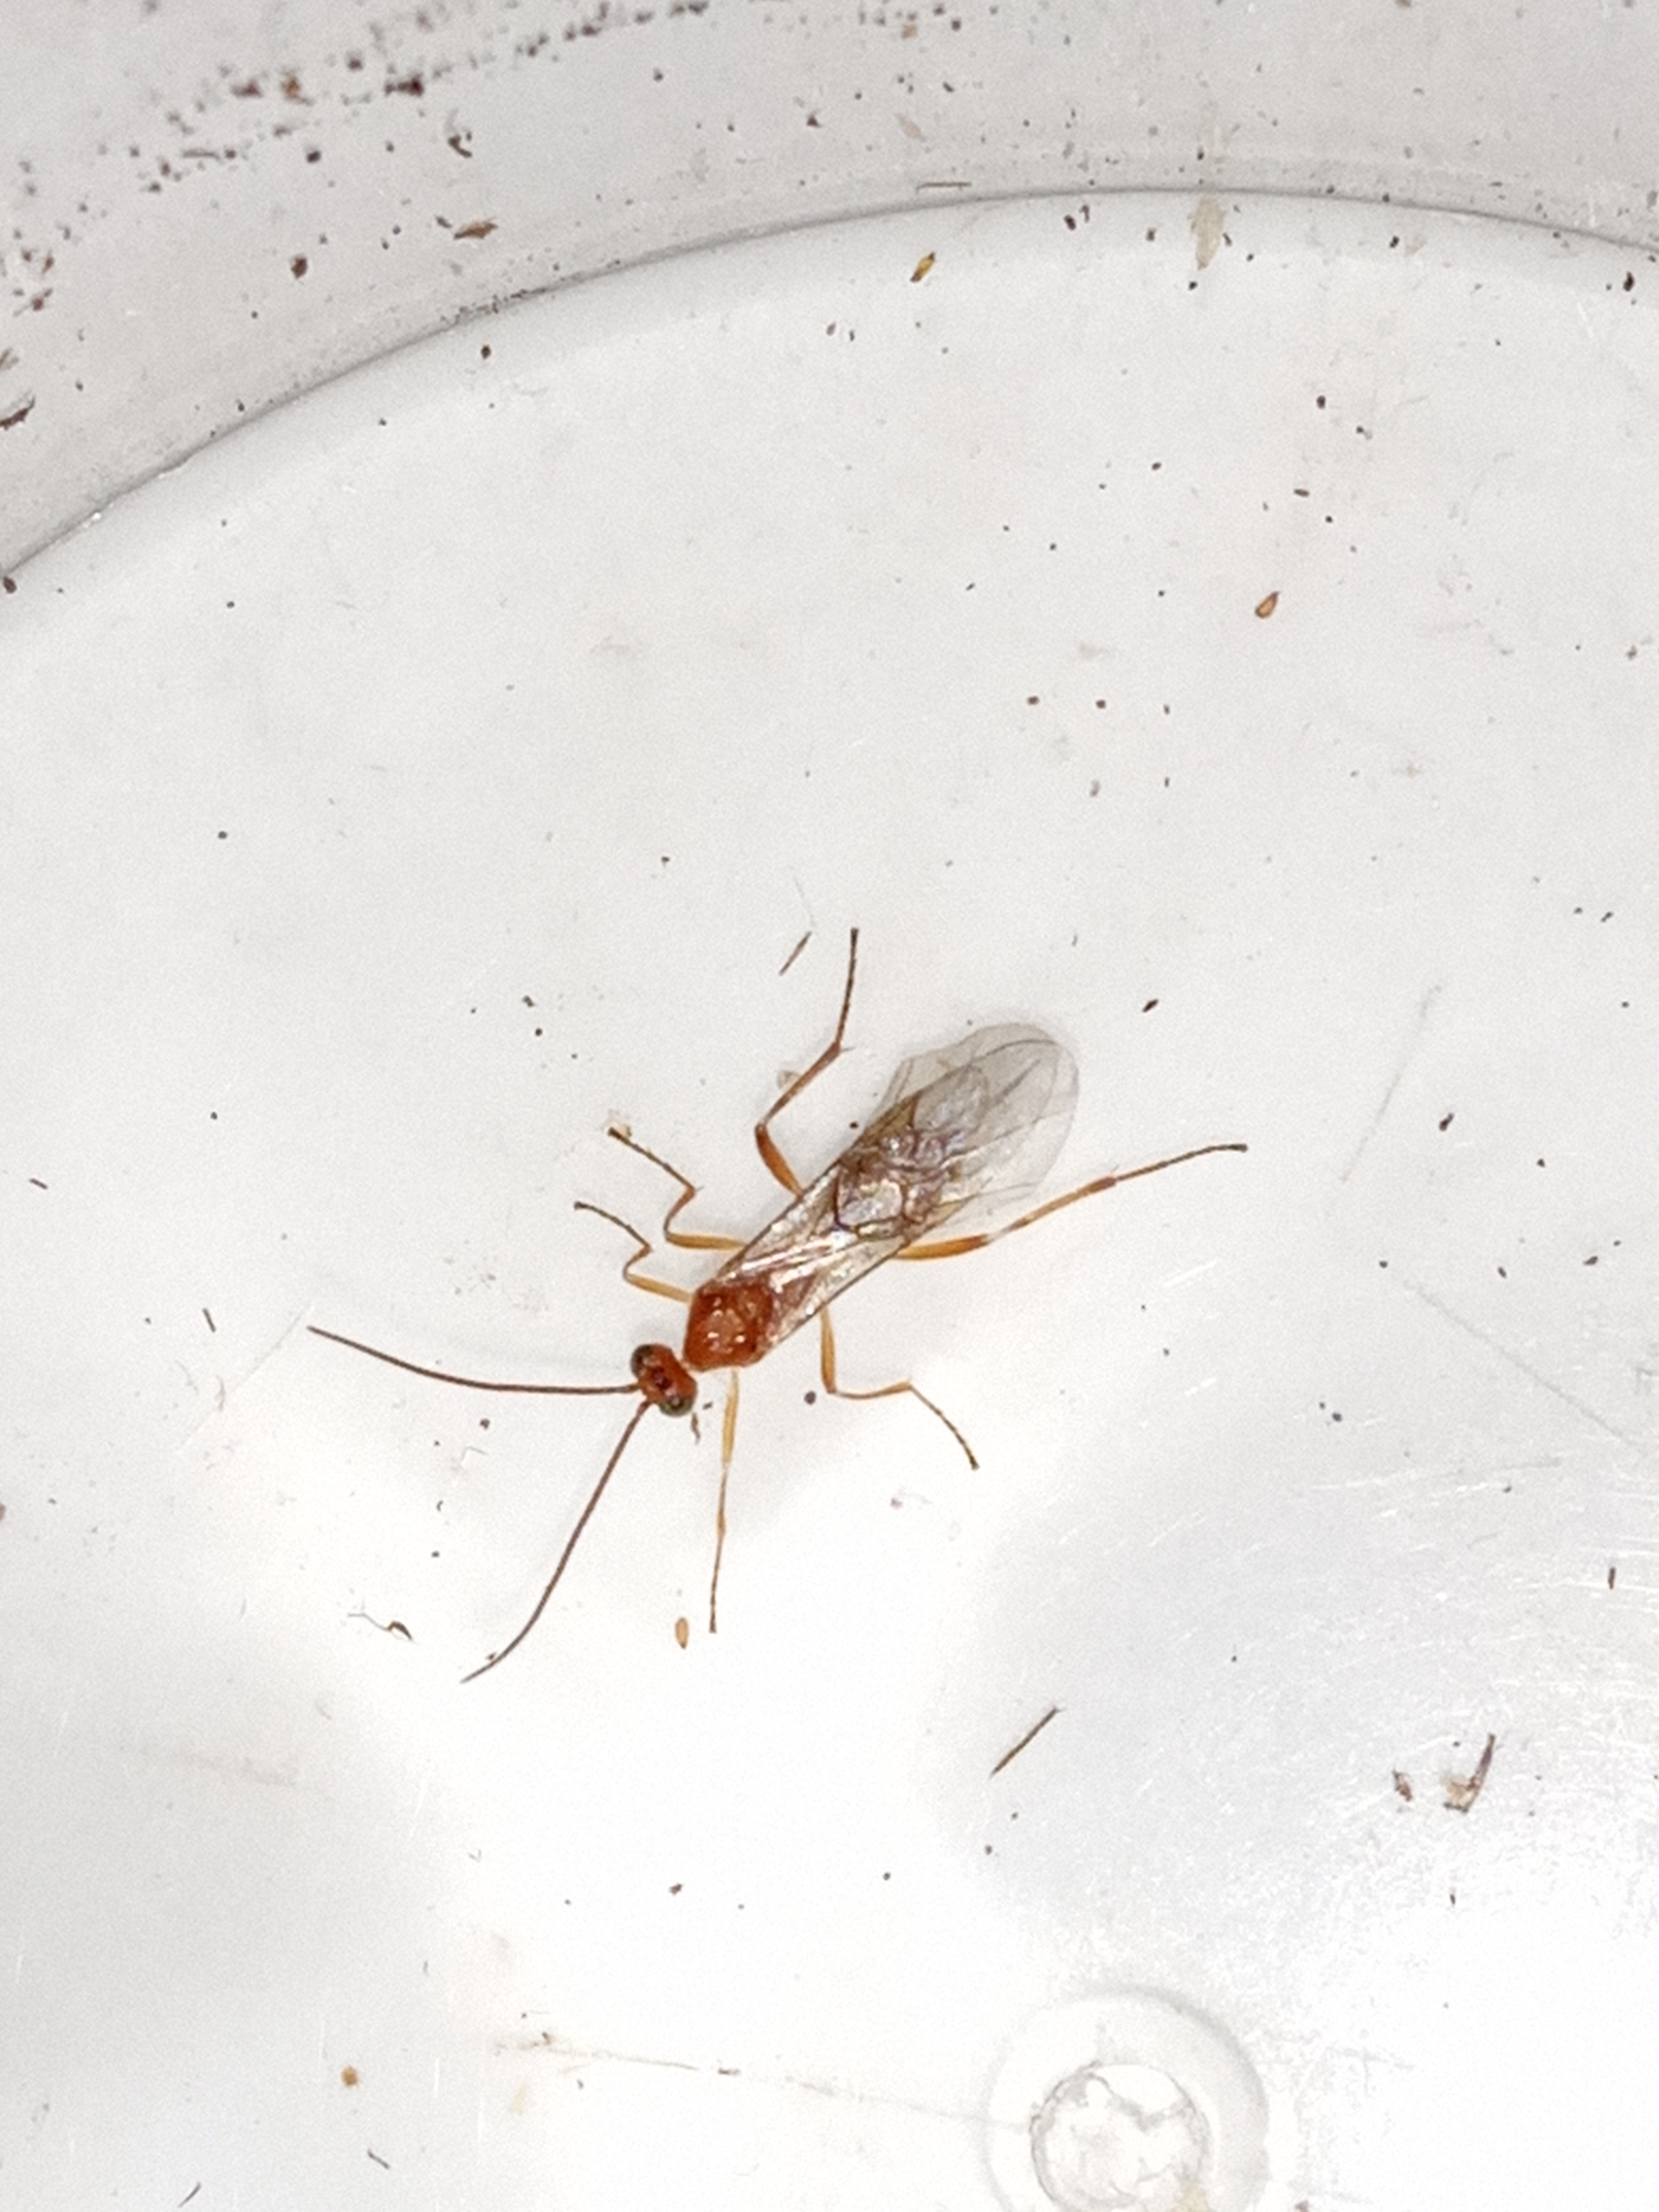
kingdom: Animalia
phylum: Arthropoda
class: Insecta
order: Hymenoptera
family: Braconidae
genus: Meteorus
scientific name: Meteorus
